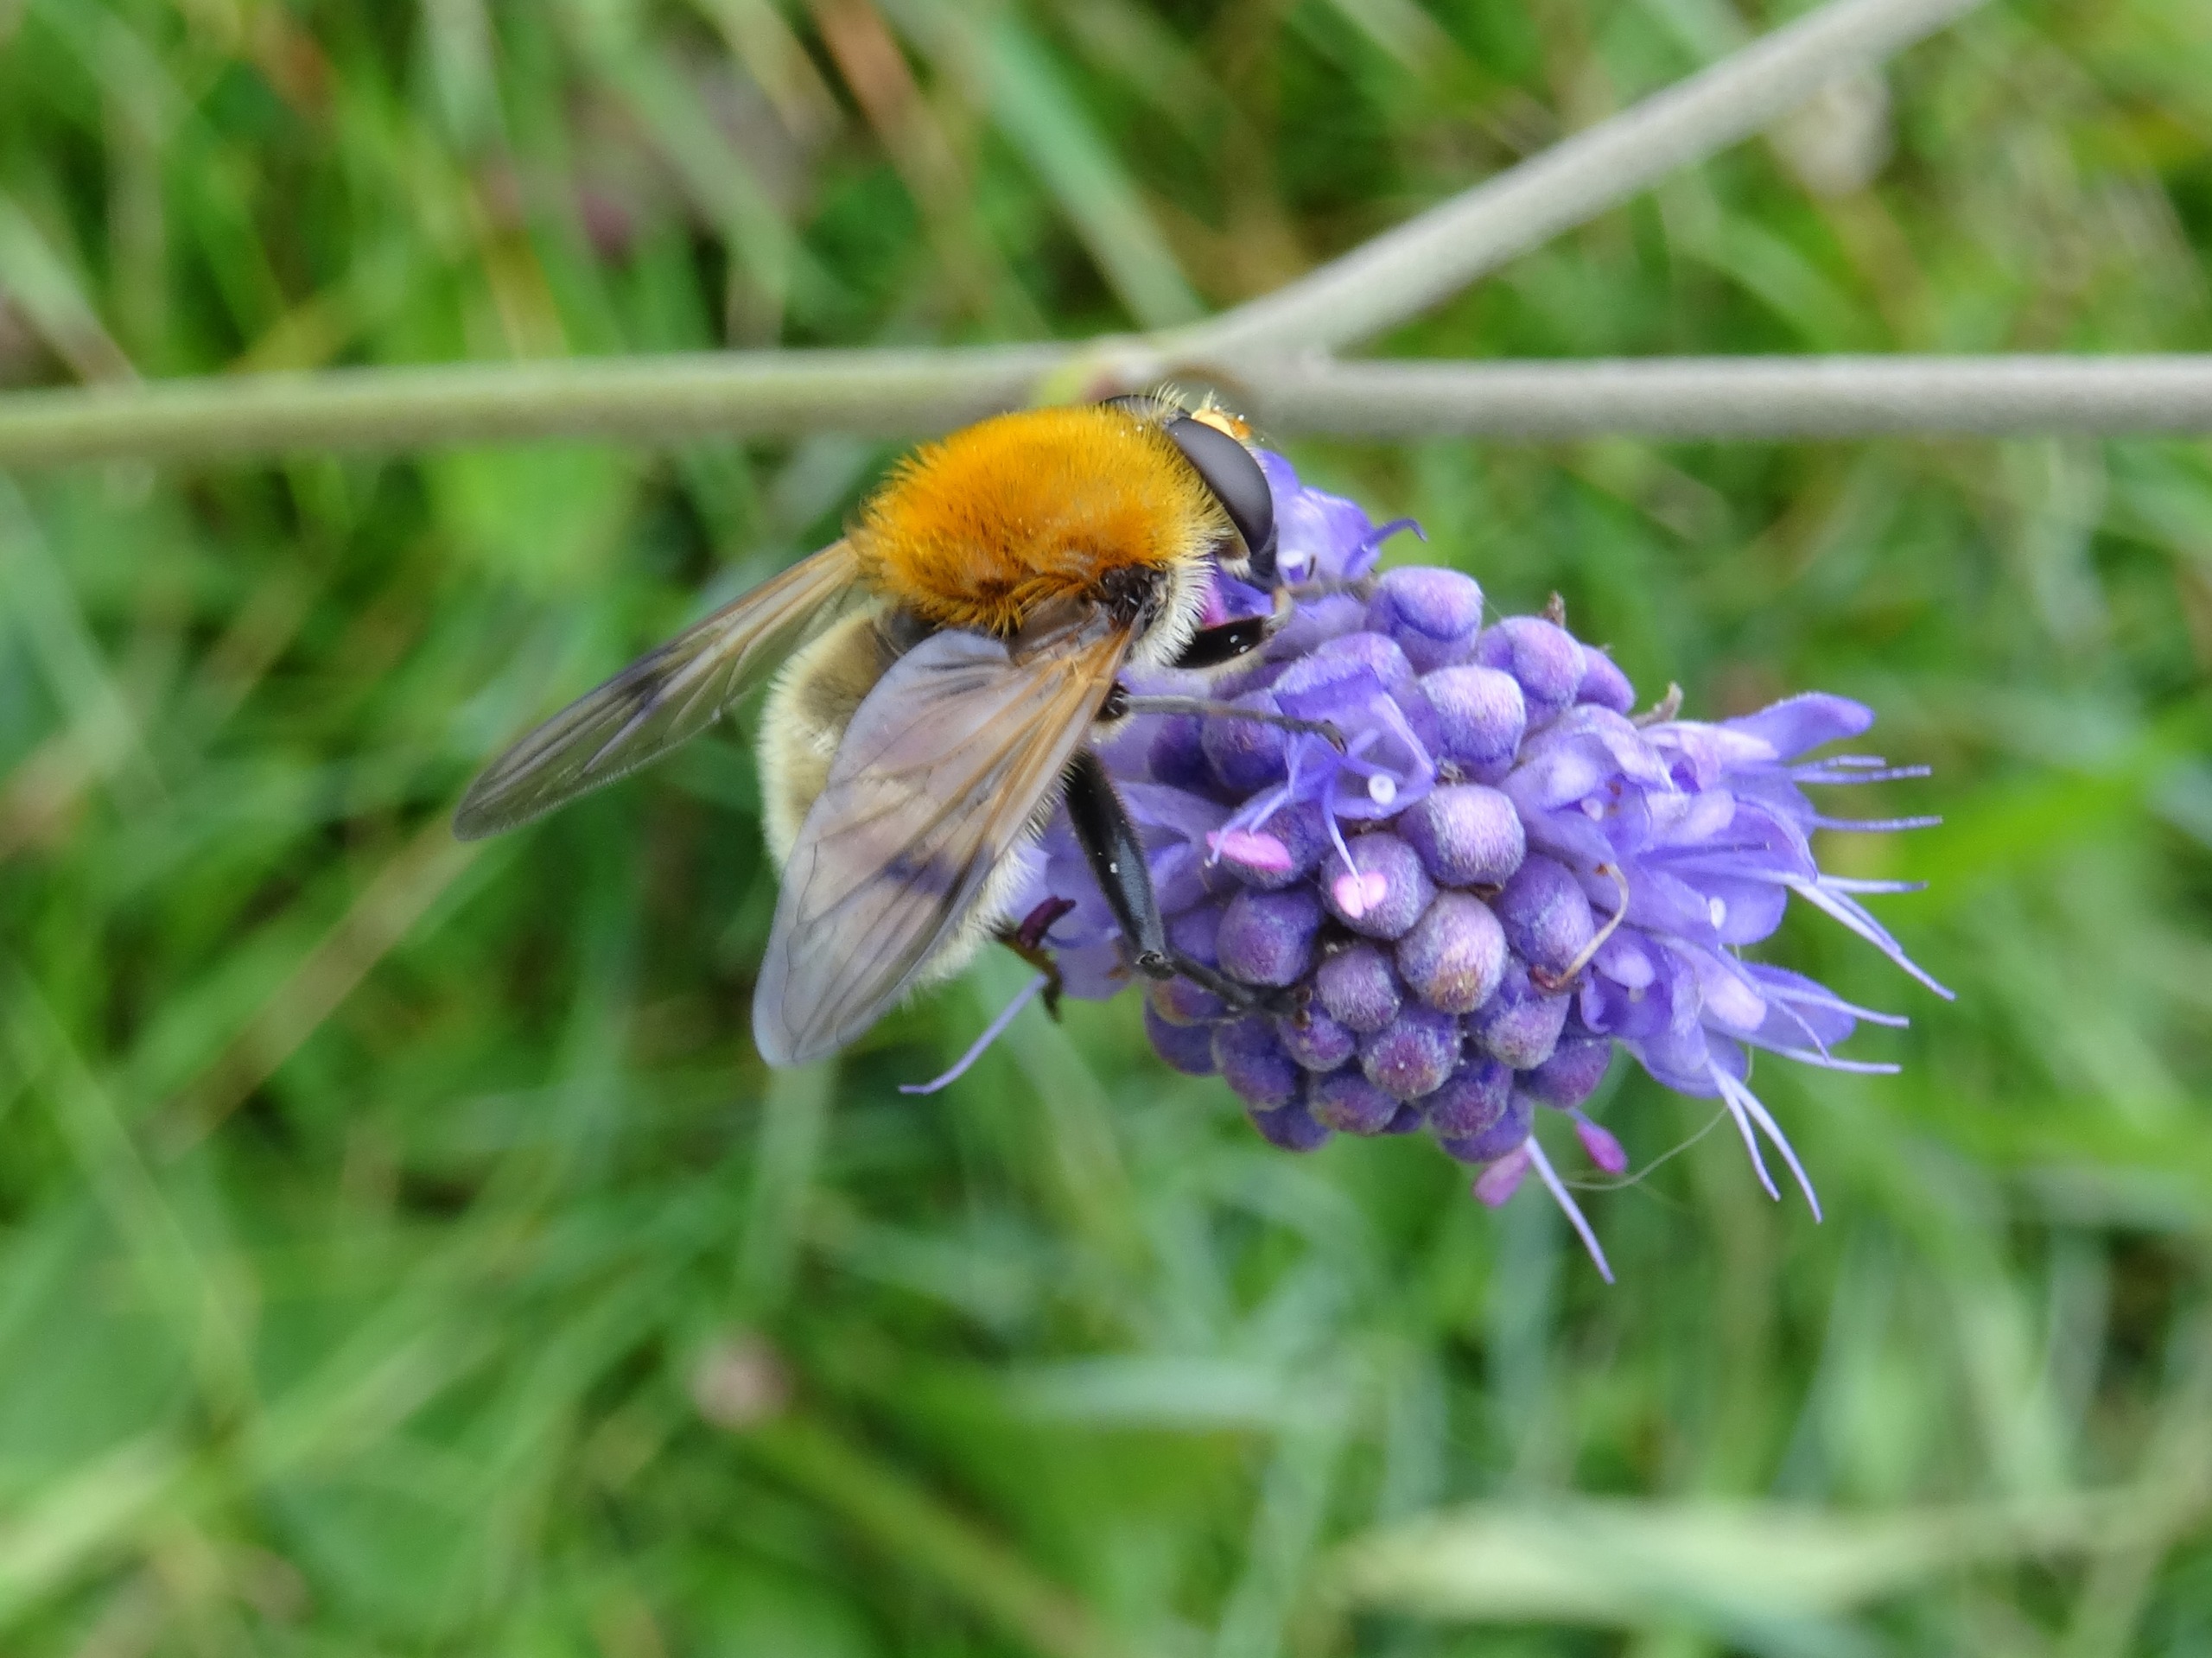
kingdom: Animalia
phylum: Arthropoda
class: Insecta
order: Diptera
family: Syrphidae
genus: Sericomyia
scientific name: Sericomyia superbiens
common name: Brun bjørnesvirreflue
